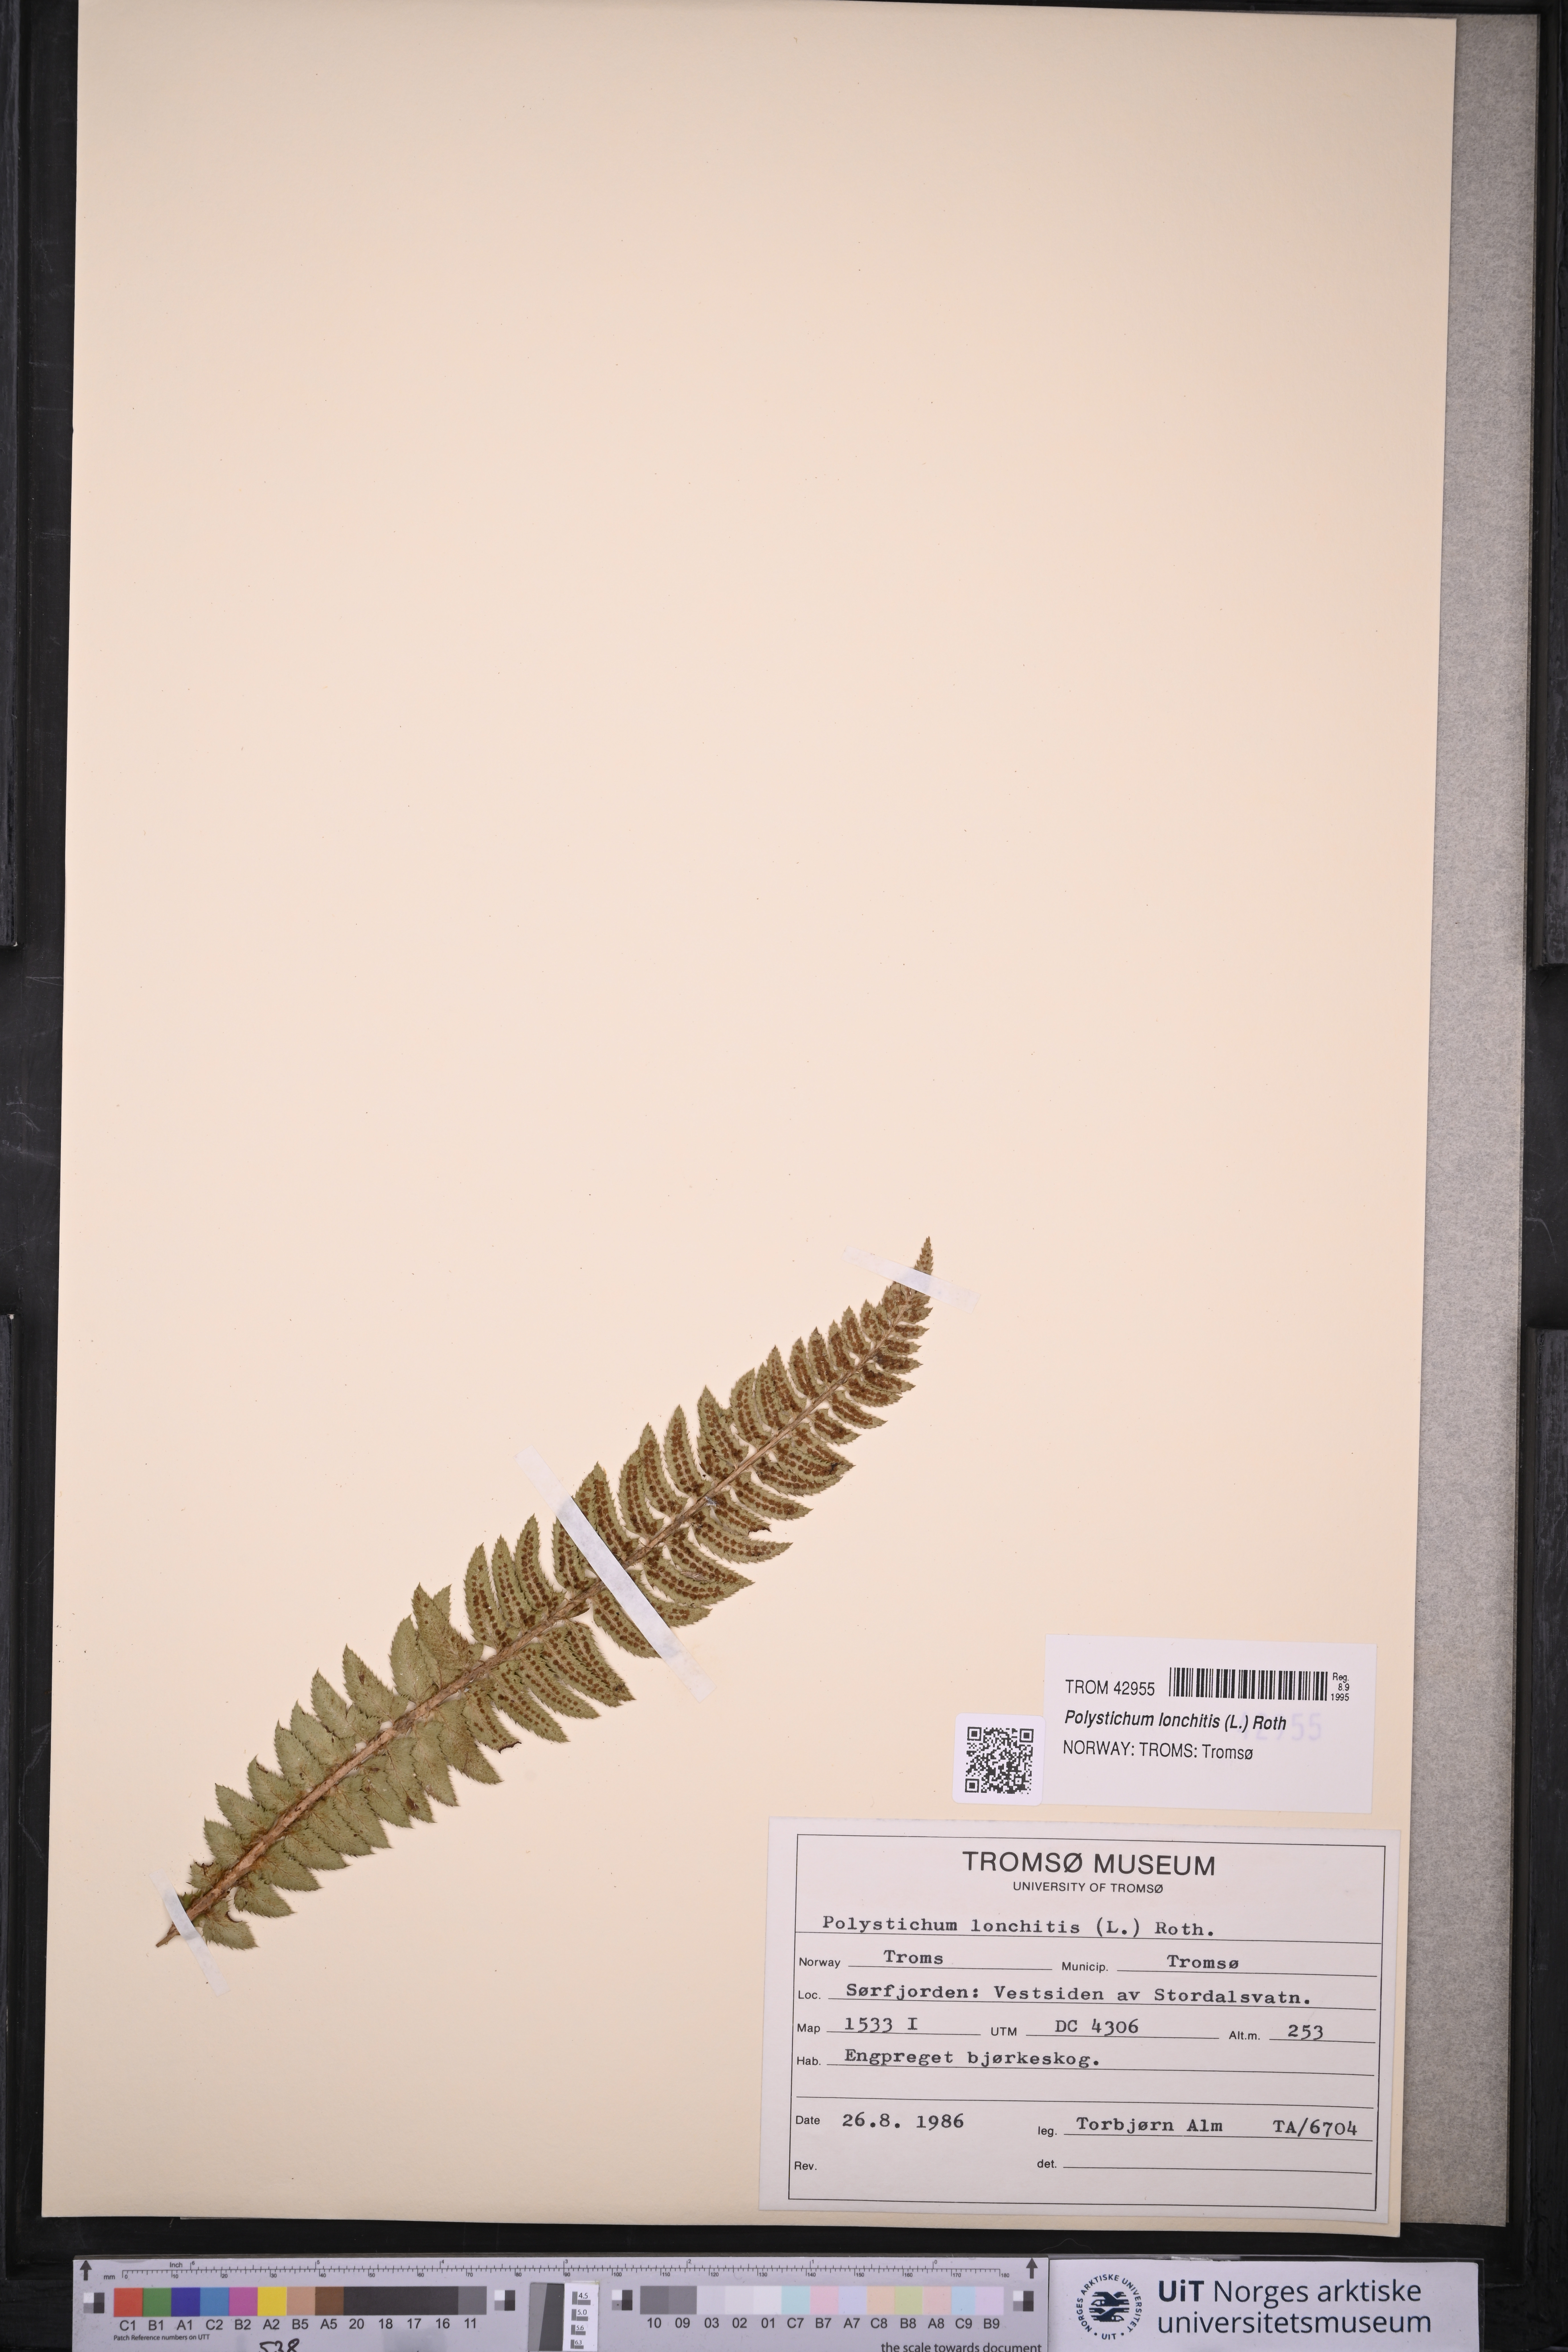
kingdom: Plantae
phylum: Tracheophyta
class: Polypodiopsida
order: Polypodiales
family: Dryopteridaceae
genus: Polystichum
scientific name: Polystichum lonchitis
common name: Holly fern
